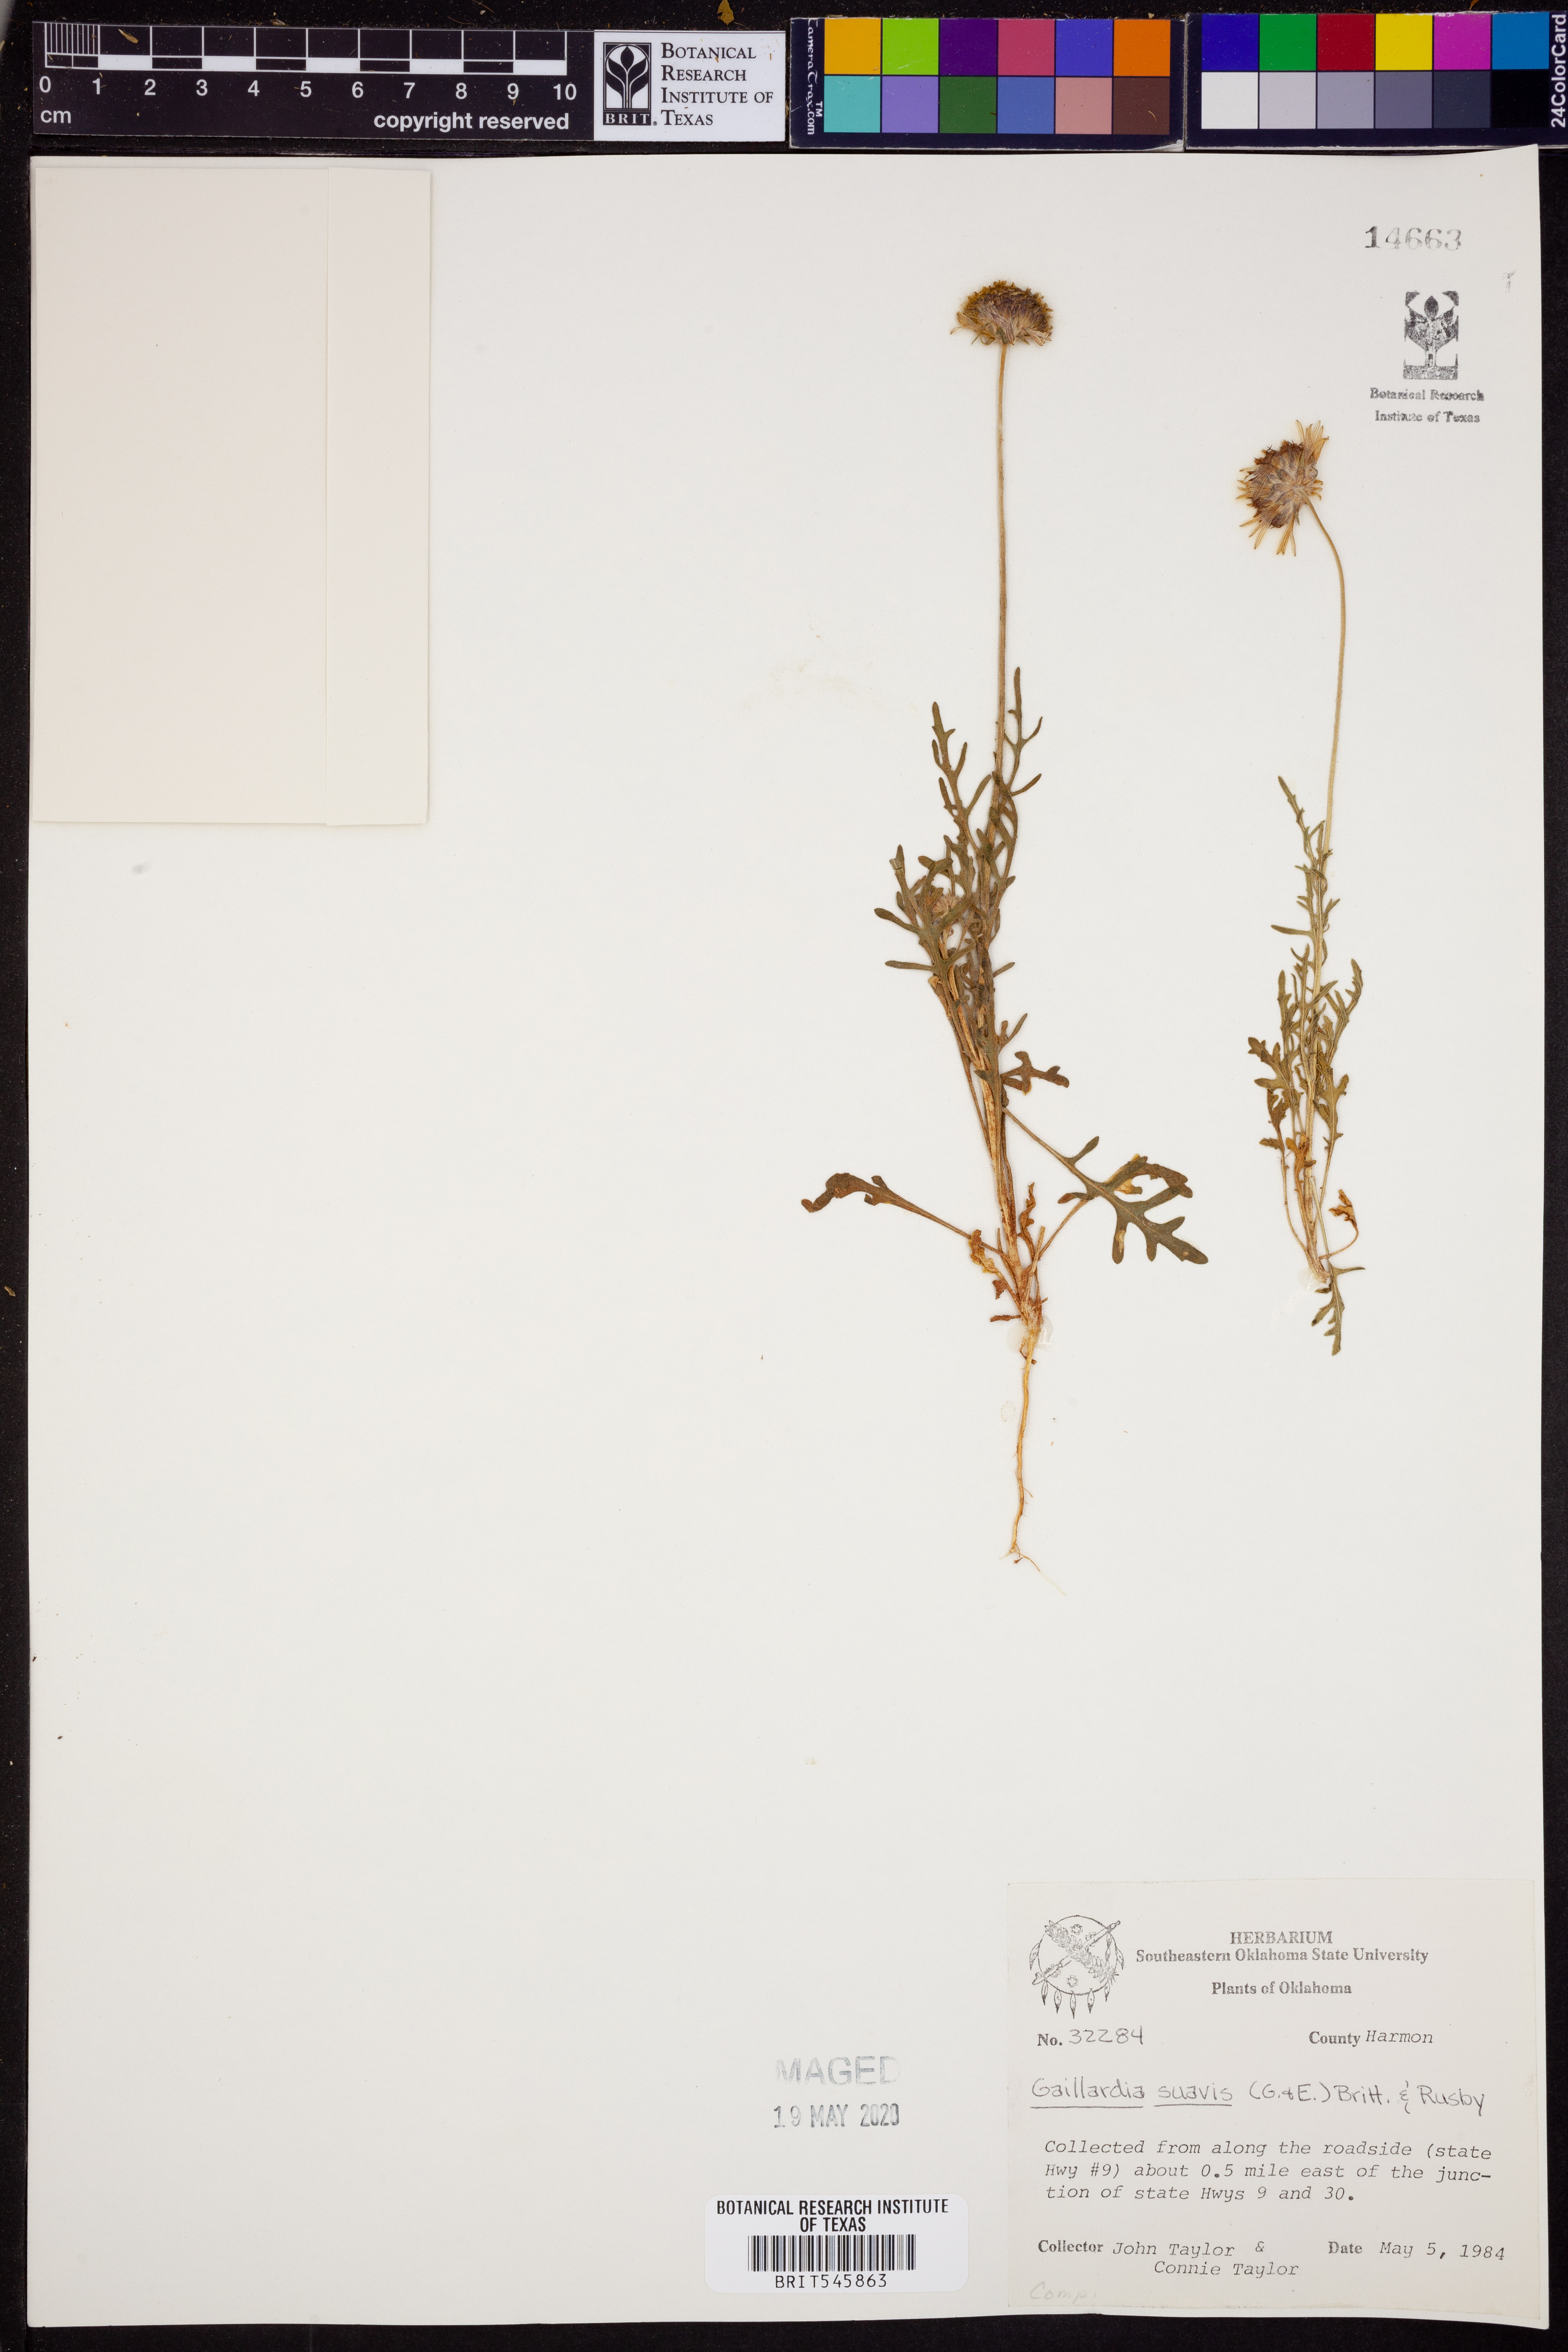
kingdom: Plantae
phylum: Tracheophyta
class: Magnoliopsida
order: Asterales
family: Asteraceae
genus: Gaillardia
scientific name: Gaillardia suavis
